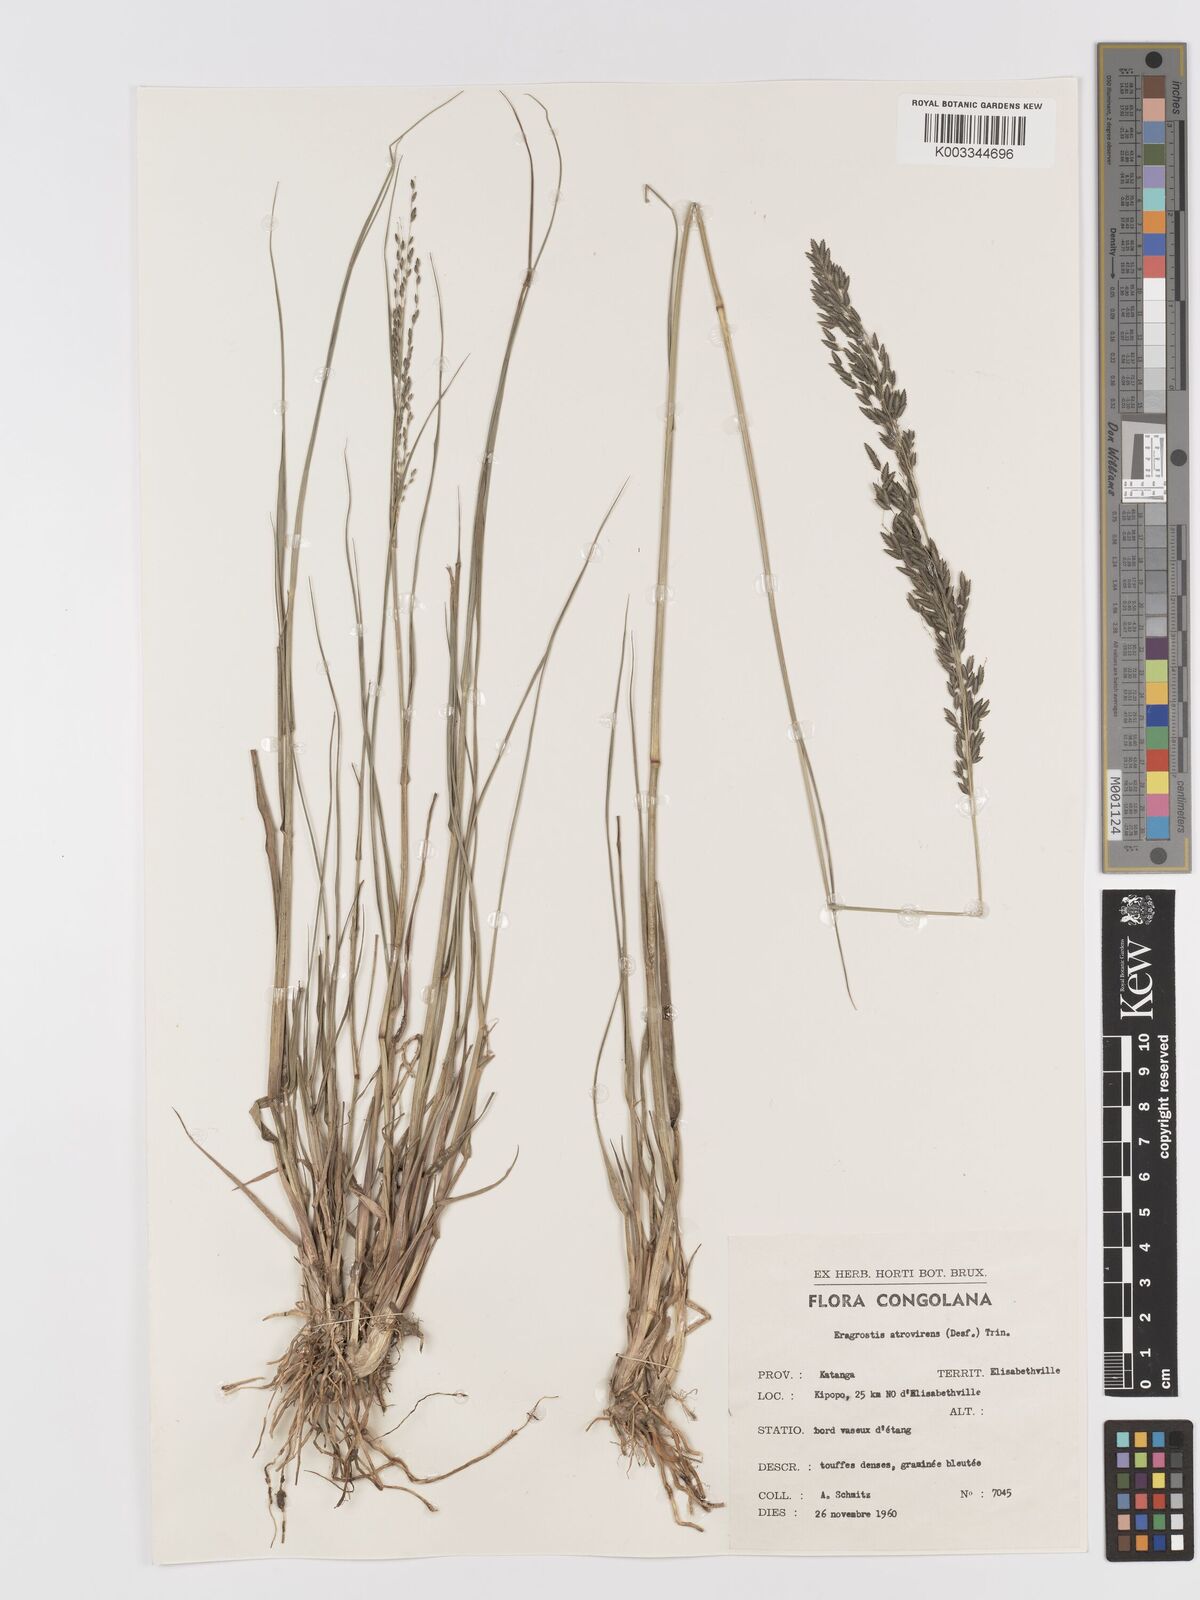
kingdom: Plantae
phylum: Tracheophyta
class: Liliopsida
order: Poales
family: Poaceae
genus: Eragrostis
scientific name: Eragrostis atrovirens
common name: Thalia lovegrass
